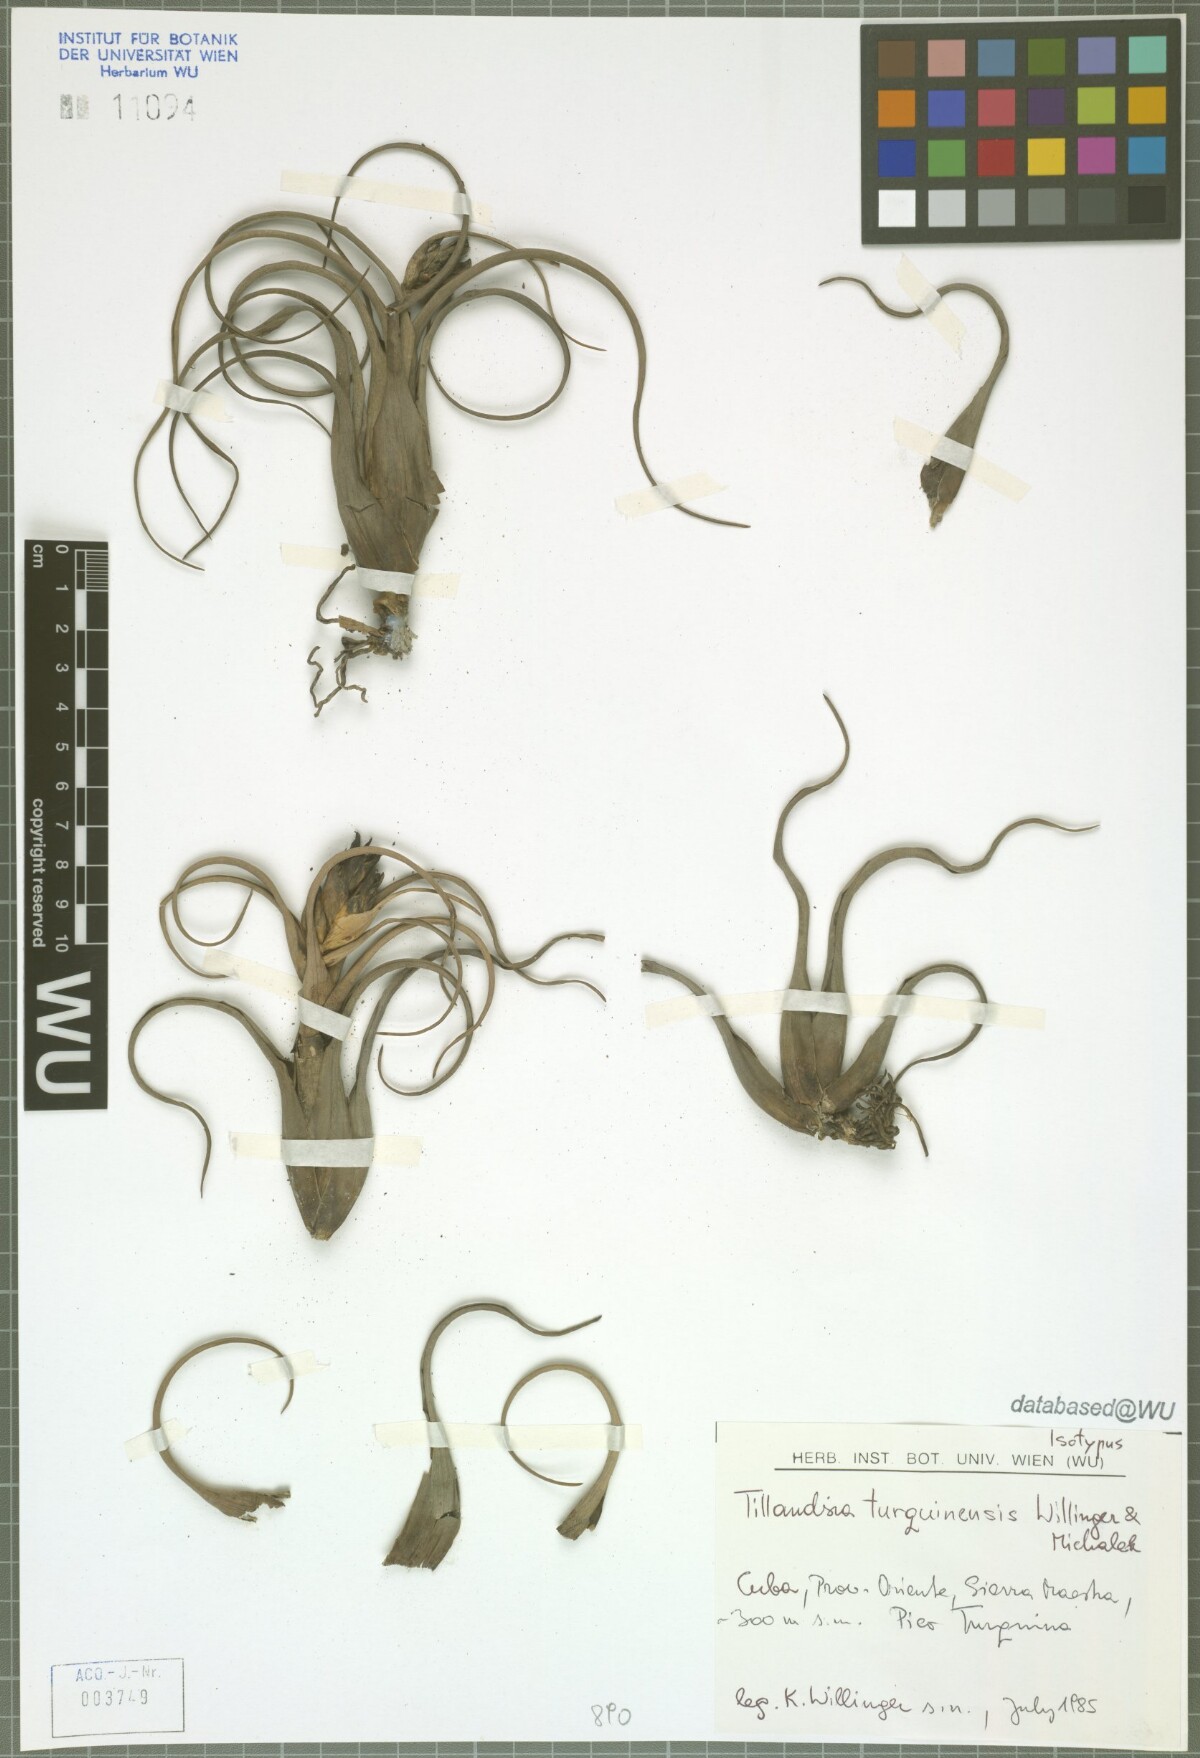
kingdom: Plantae
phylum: Tracheophyta
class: Liliopsida
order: Poales
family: Bromeliaceae
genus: Tillandsia
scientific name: Tillandsia turquinensis
